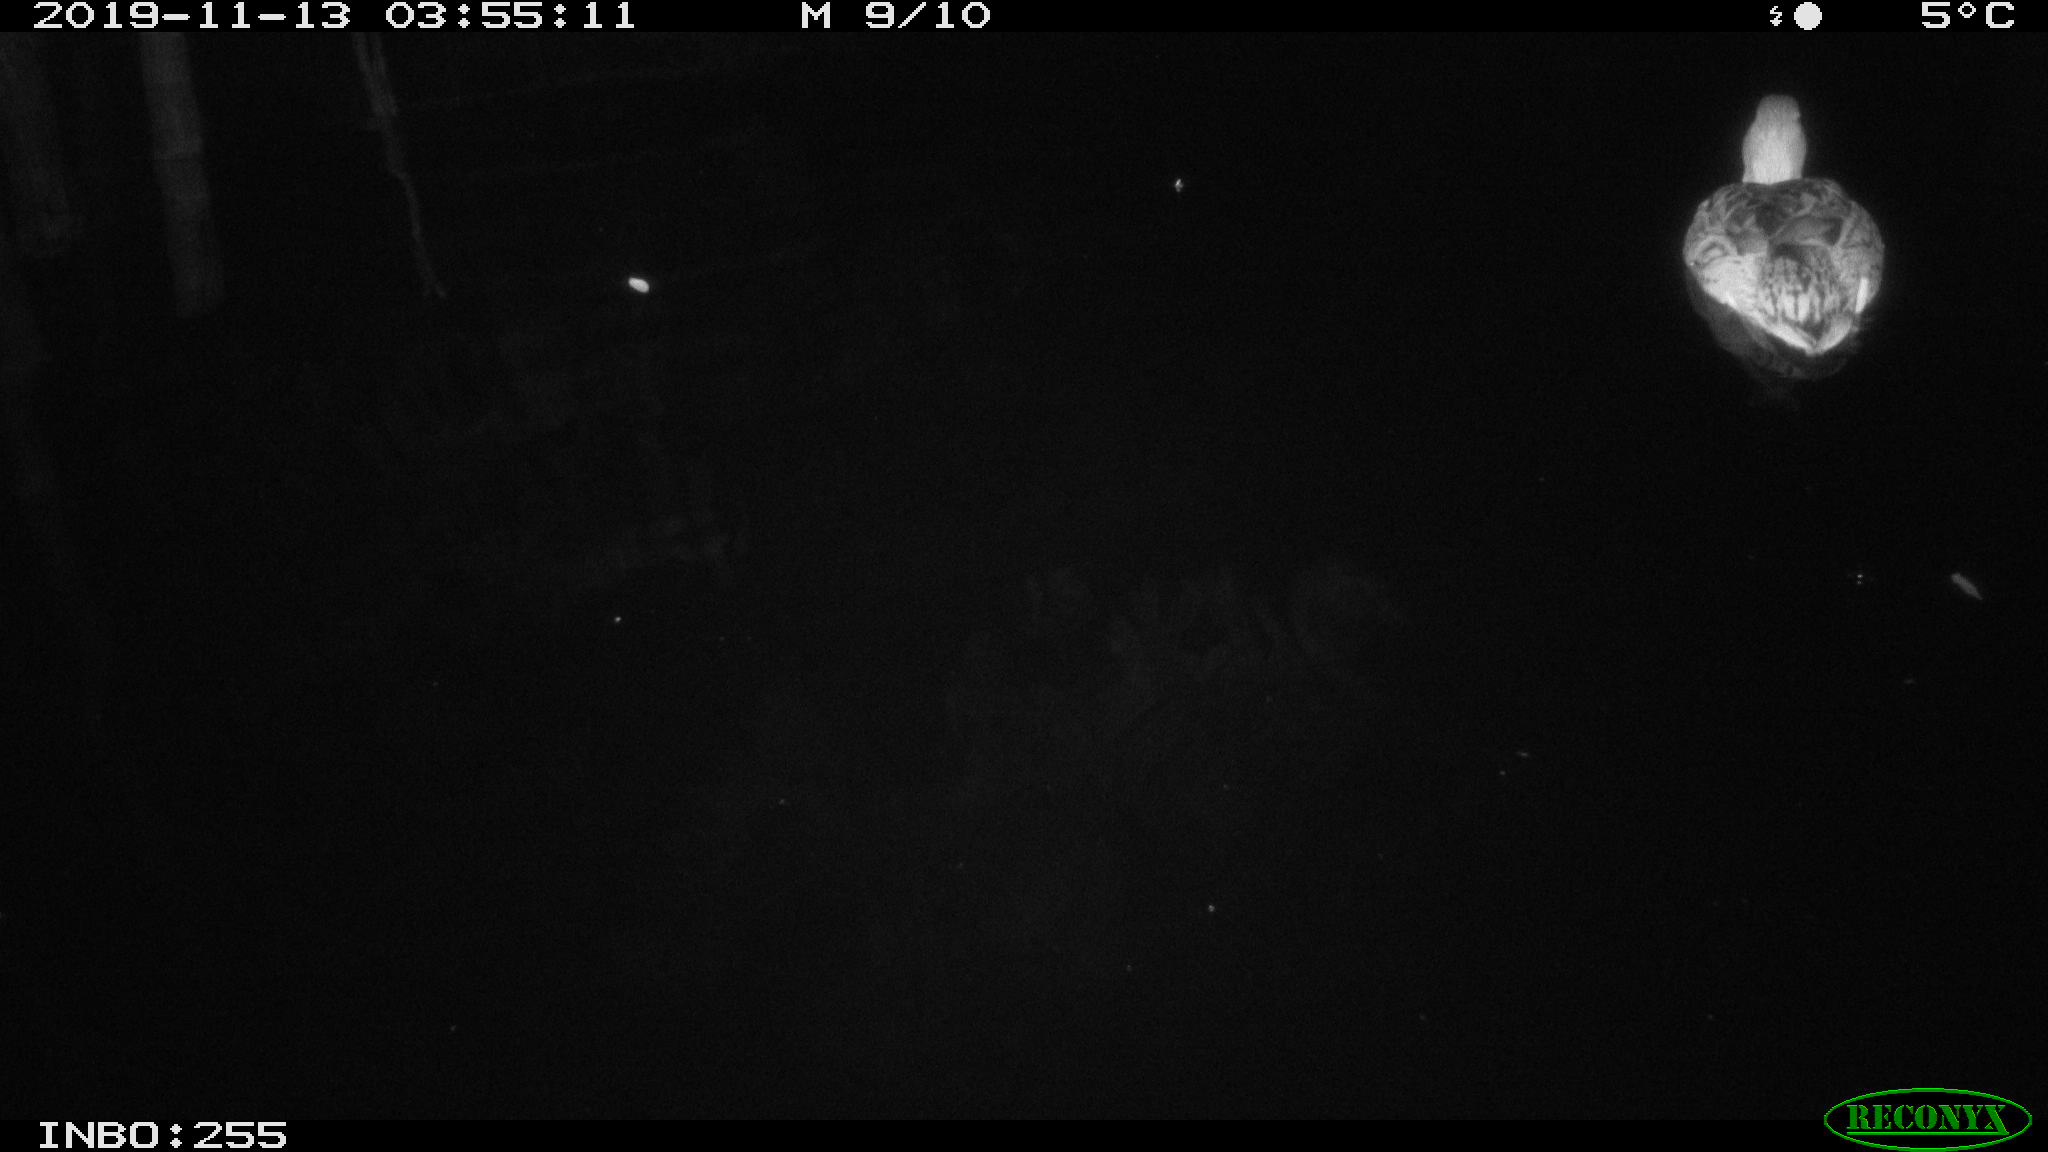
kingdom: Animalia
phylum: Chordata
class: Aves
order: Anseriformes
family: Anatidae
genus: Anas
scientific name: Anas platyrhynchos
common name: Mallard
